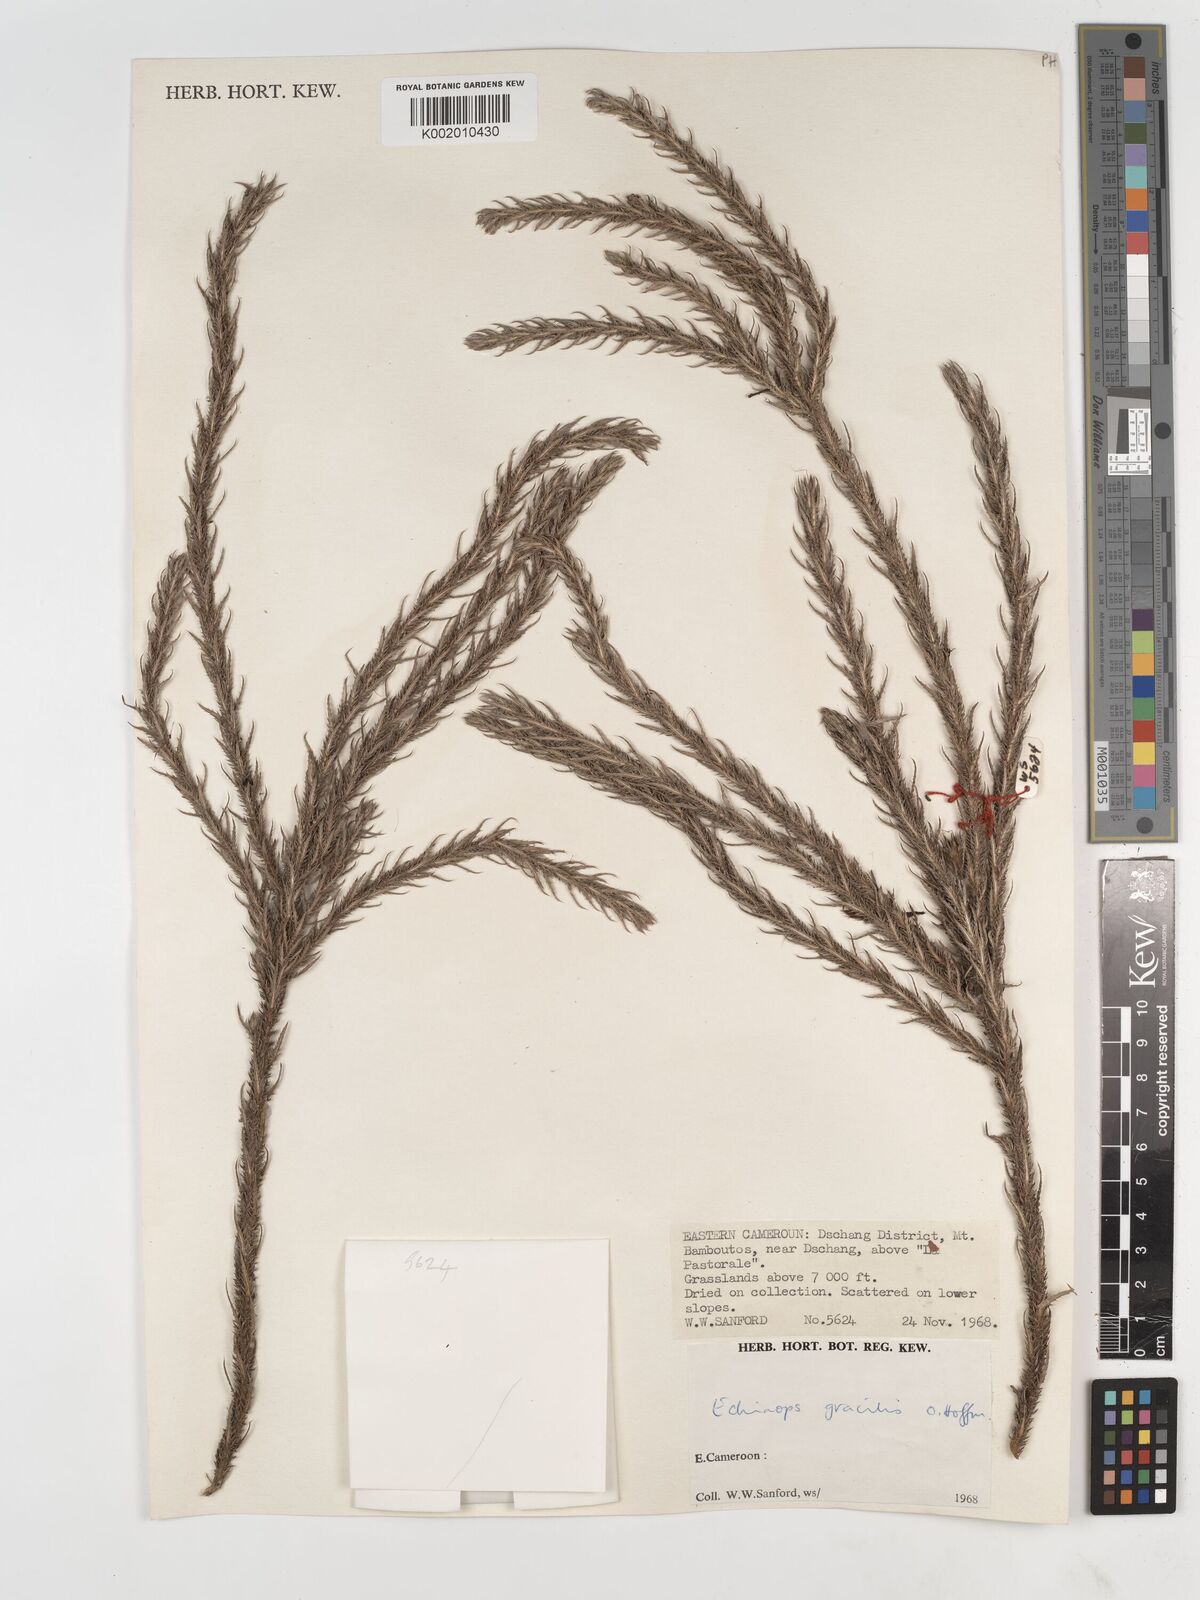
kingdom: Plantae
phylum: Tracheophyta
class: Magnoliopsida
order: Asterales
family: Asteraceae
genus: Echinops
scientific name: Echinops gracilis
